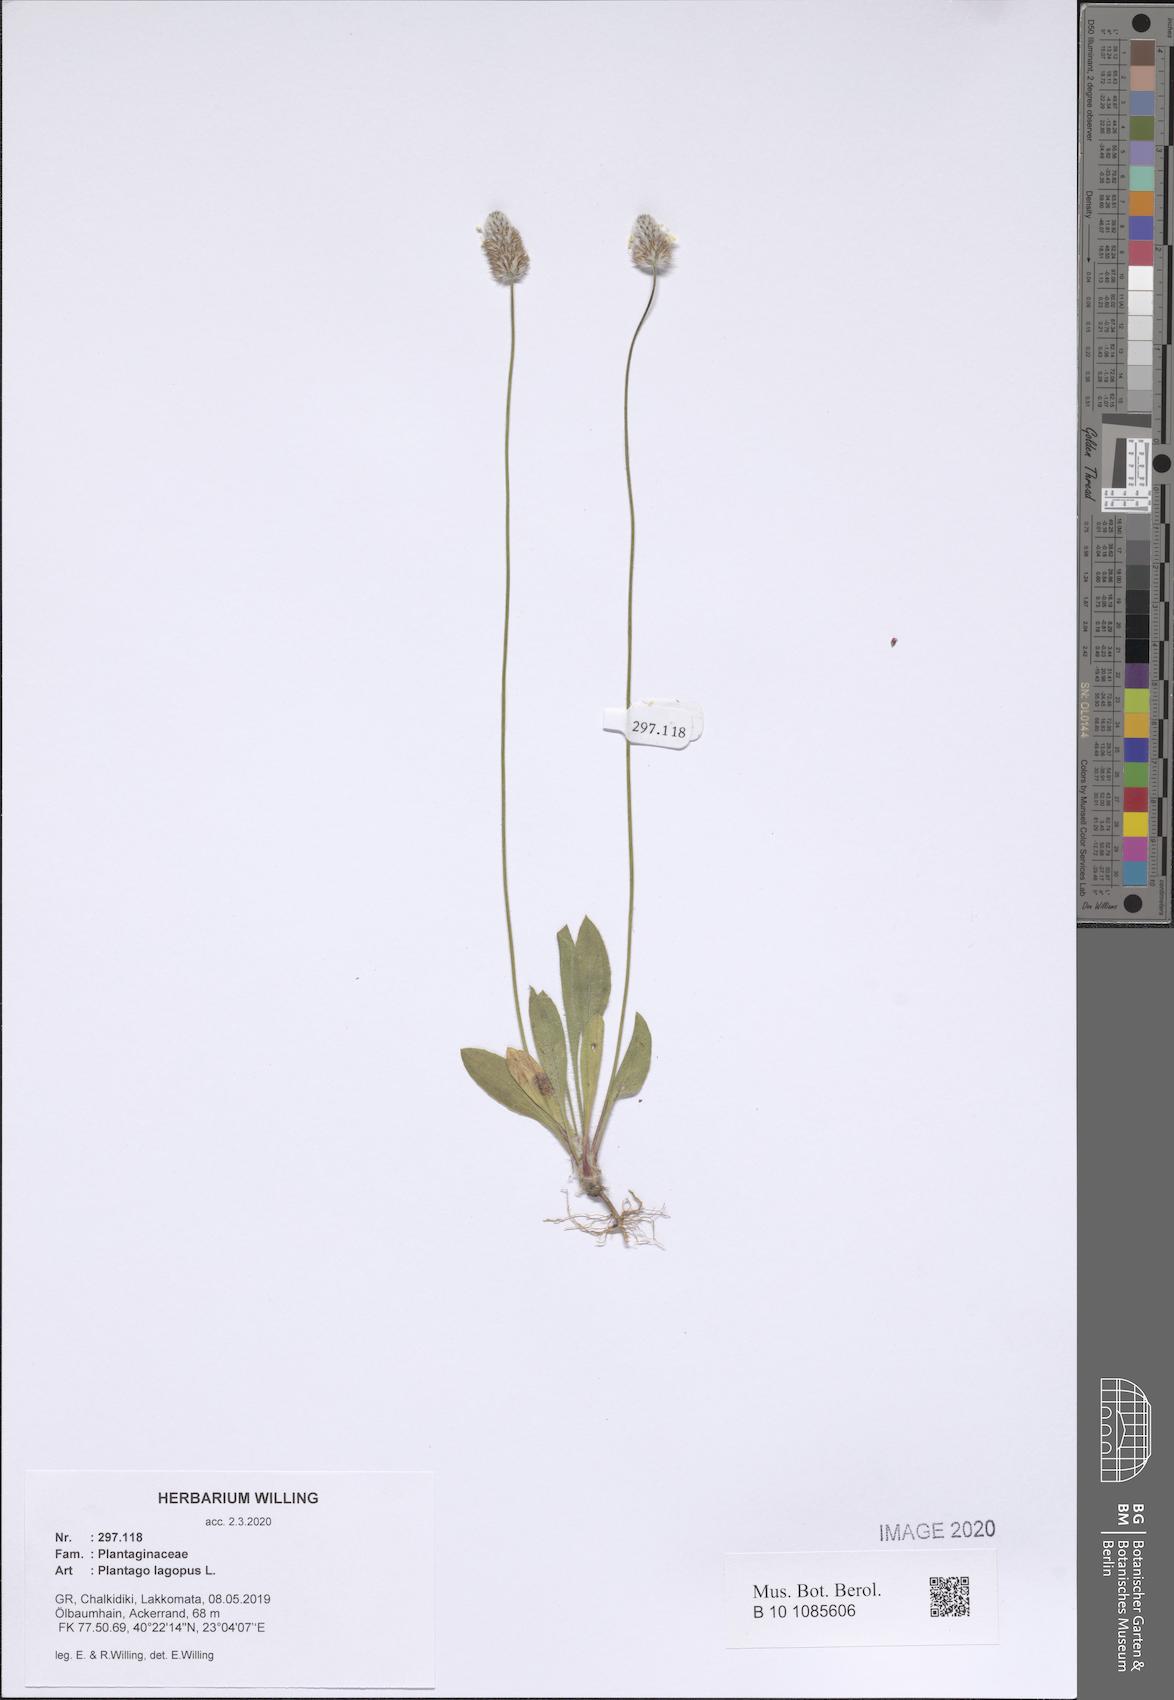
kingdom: Plantae
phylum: Tracheophyta
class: Magnoliopsida
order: Lamiales
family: Plantaginaceae
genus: Plantago
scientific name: Plantago lagopus
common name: Hare-foot plantain
